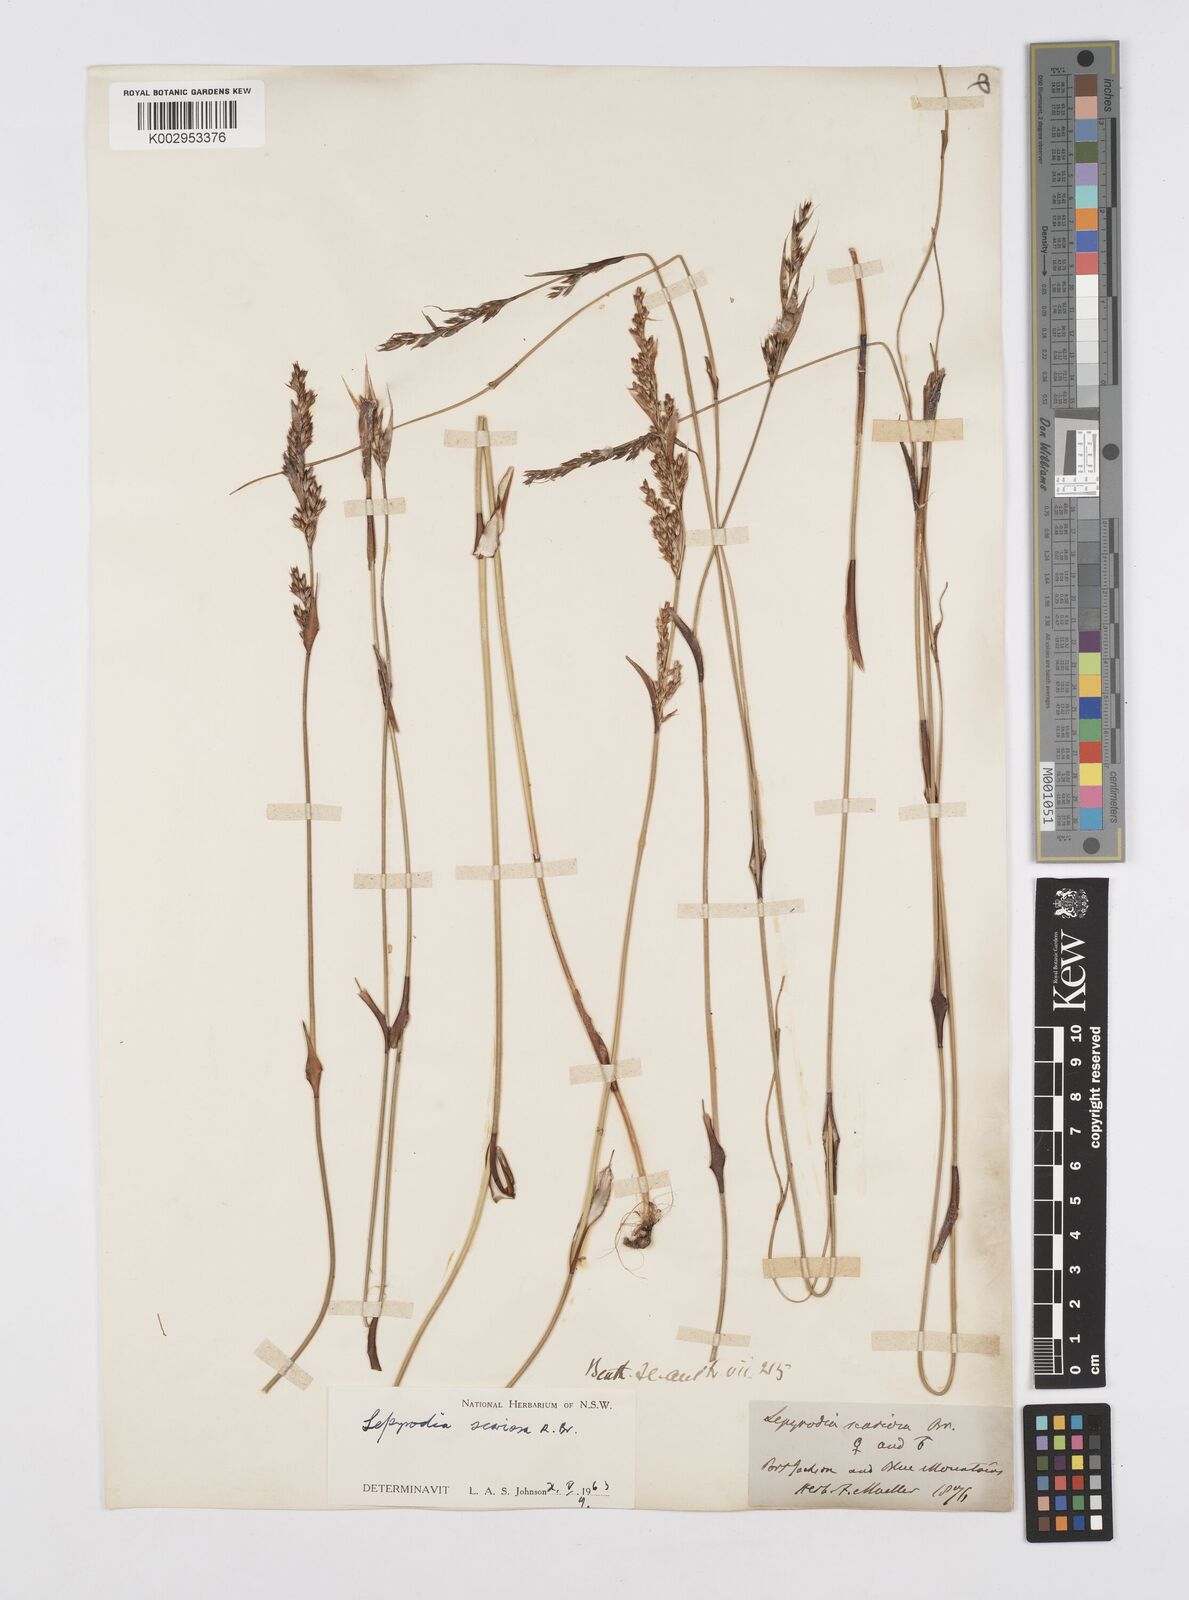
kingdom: Plantae
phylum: Tracheophyta
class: Liliopsida
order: Poales
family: Restionaceae
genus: Lepyrodia
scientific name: Lepyrodia scariosa
